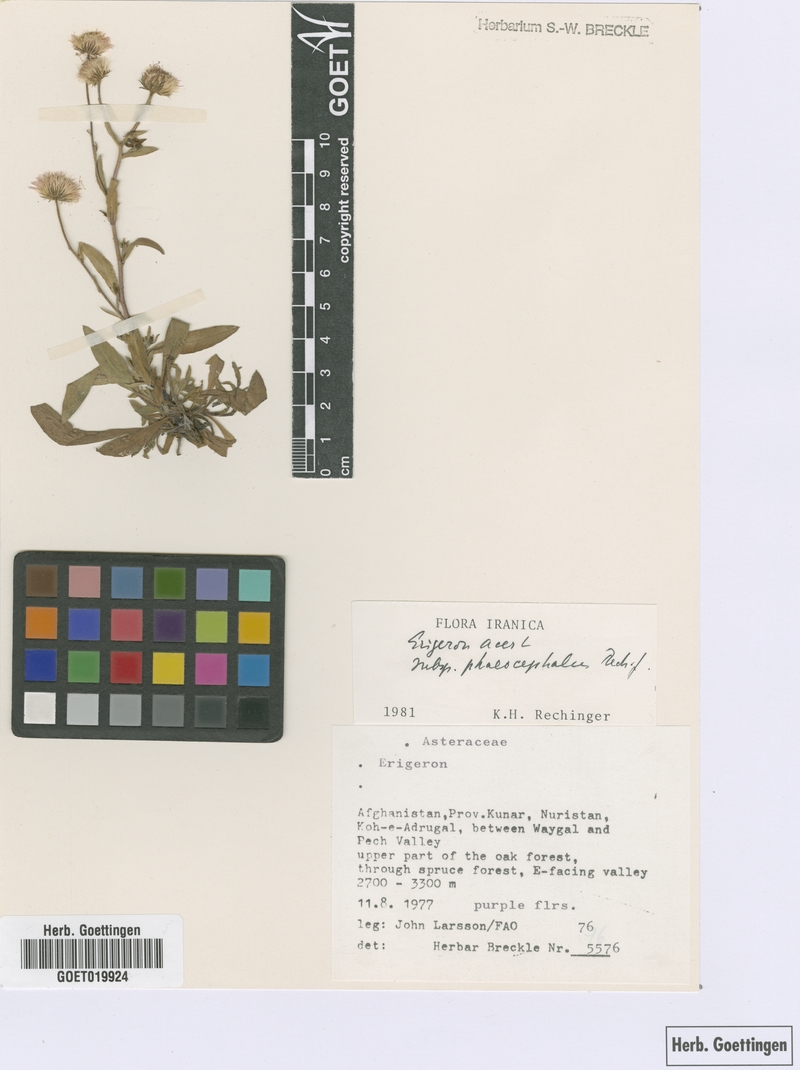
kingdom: Plantae
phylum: Tracheophyta
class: Magnoliopsida
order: Asterales
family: Asteraceae
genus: Erigeron
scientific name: Erigeron acer
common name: Blue fleabane
